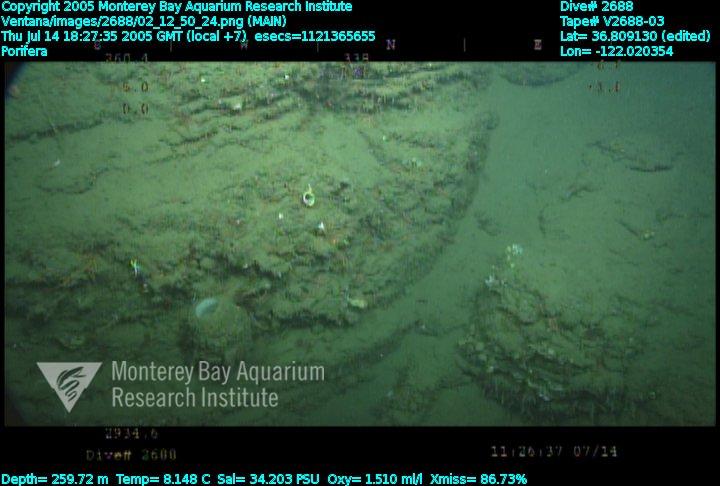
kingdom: Animalia
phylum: Porifera
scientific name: Porifera
